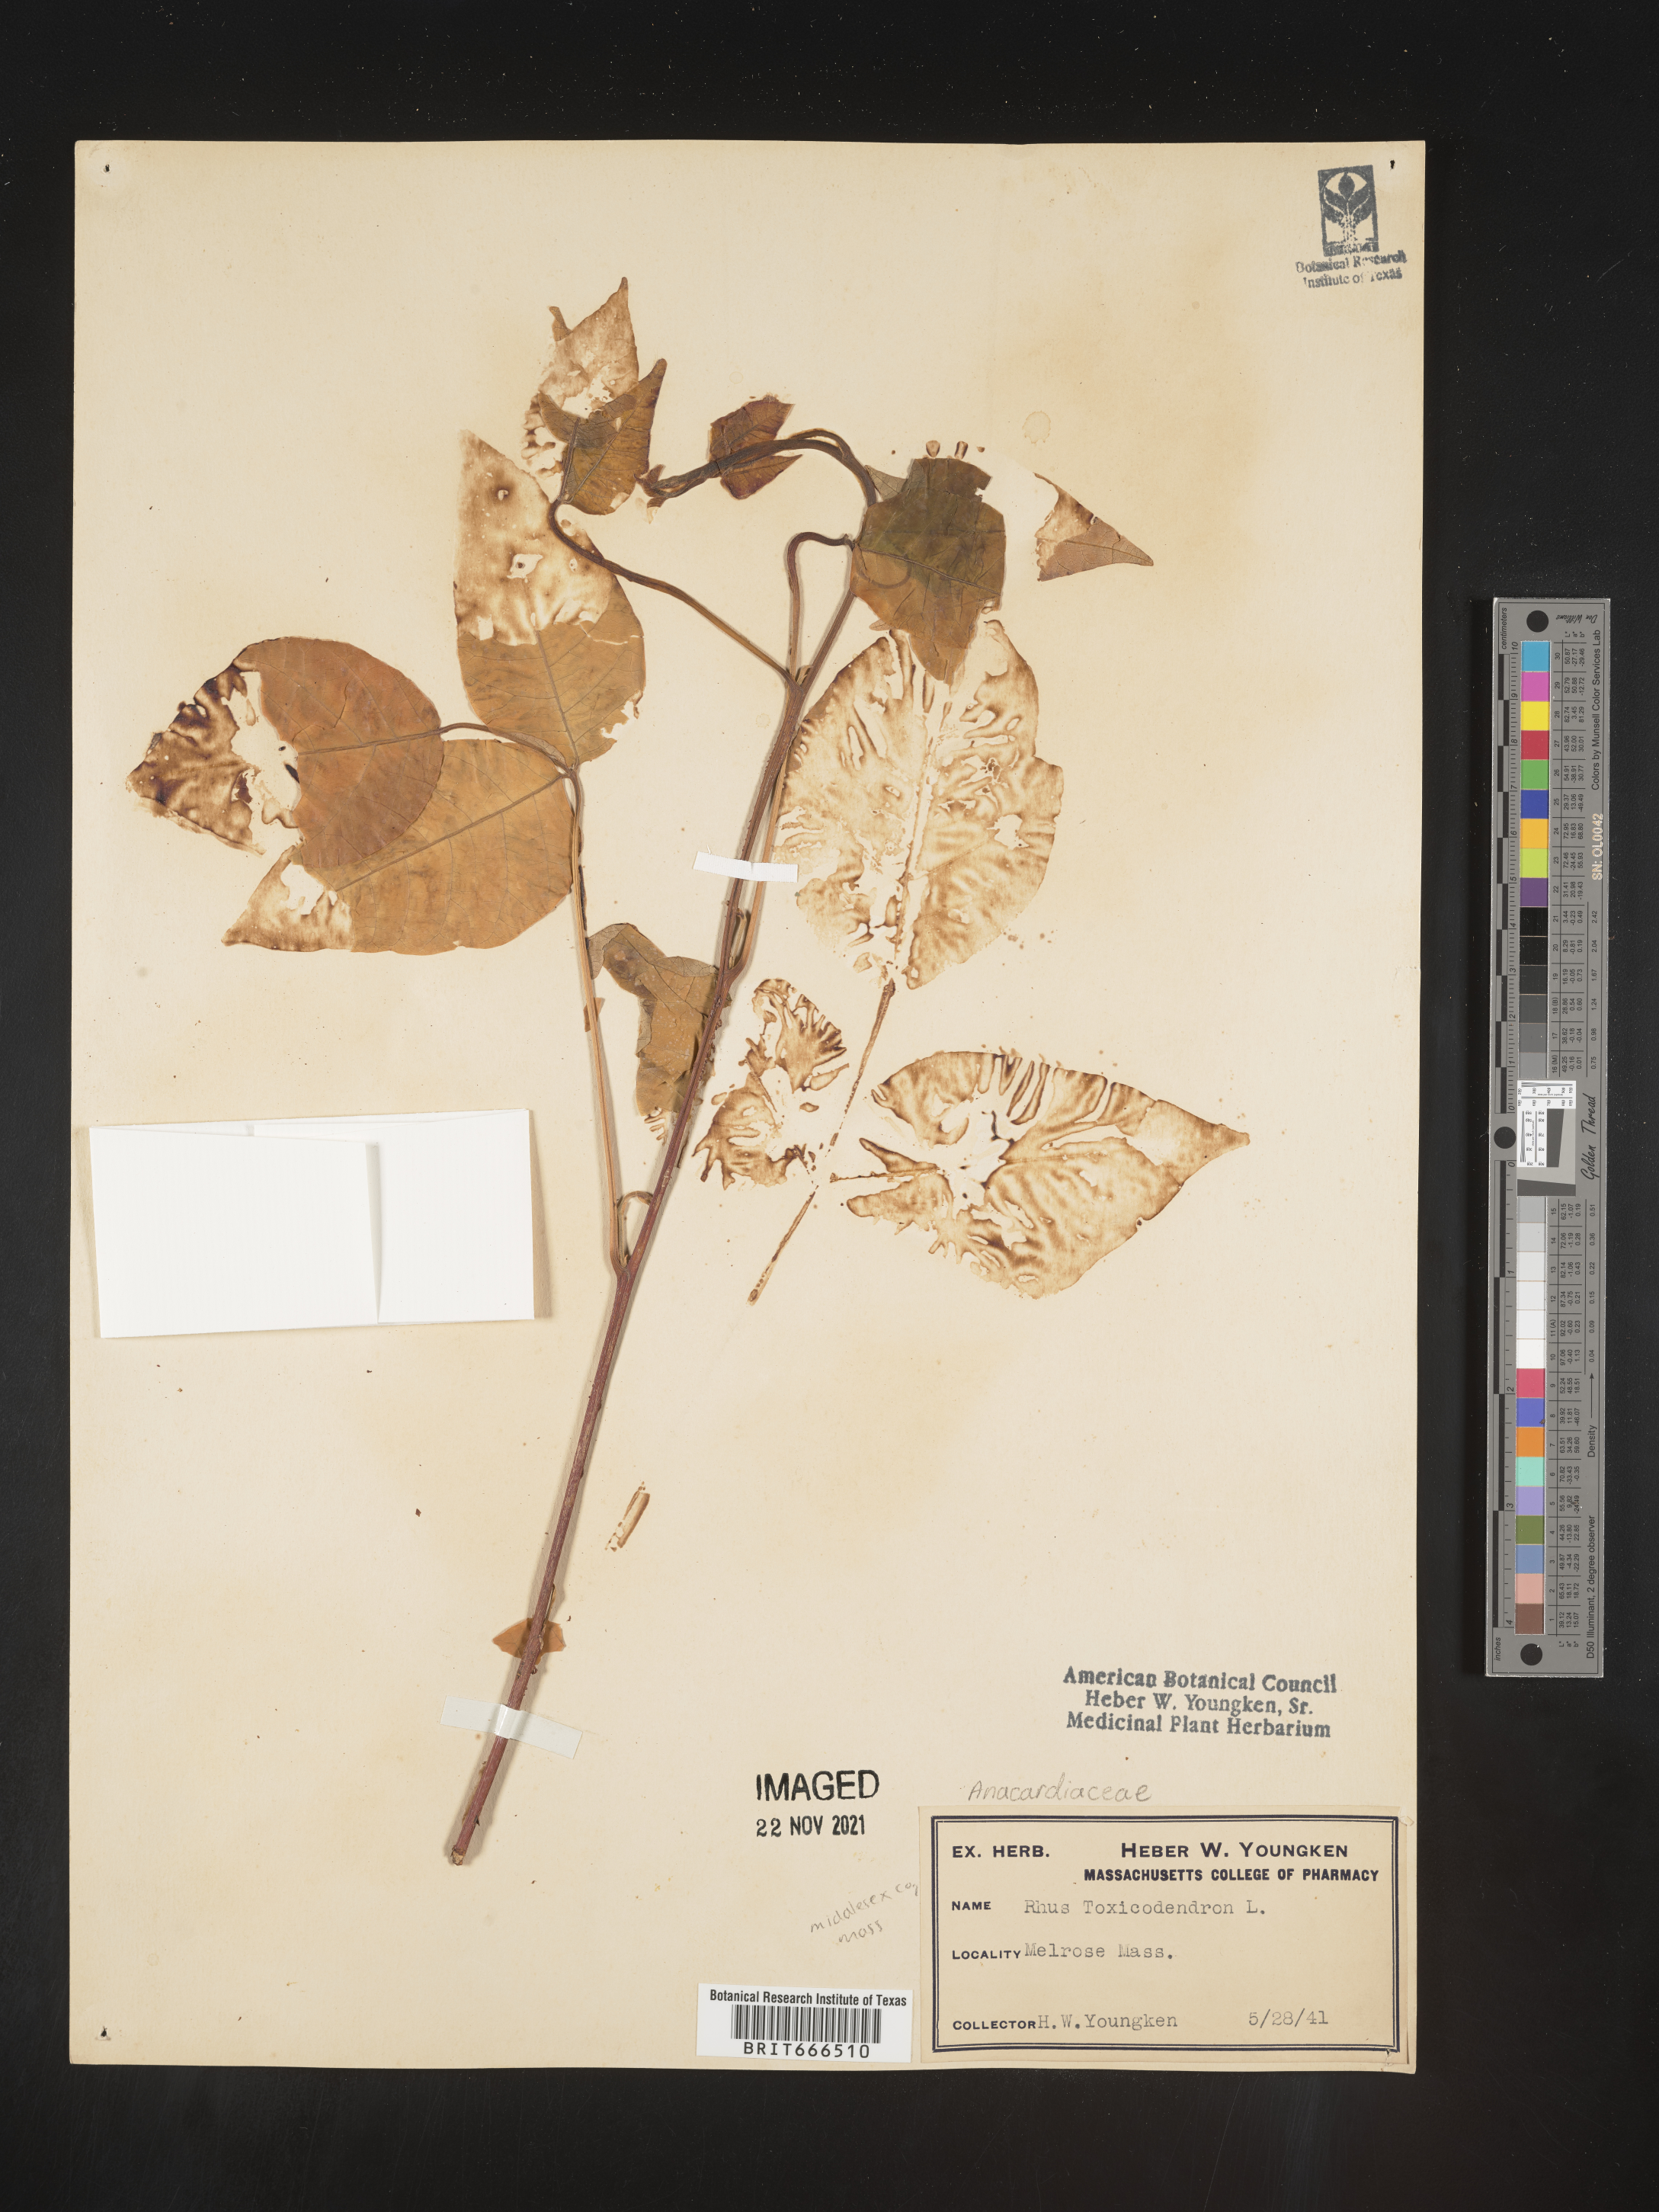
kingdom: Plantae
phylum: Tracheophyta
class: Magnoliopsida
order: Sapindales
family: Anacardiaceae
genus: Toxicodendron
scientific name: Toxicodendron radicans
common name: Poison ivy
